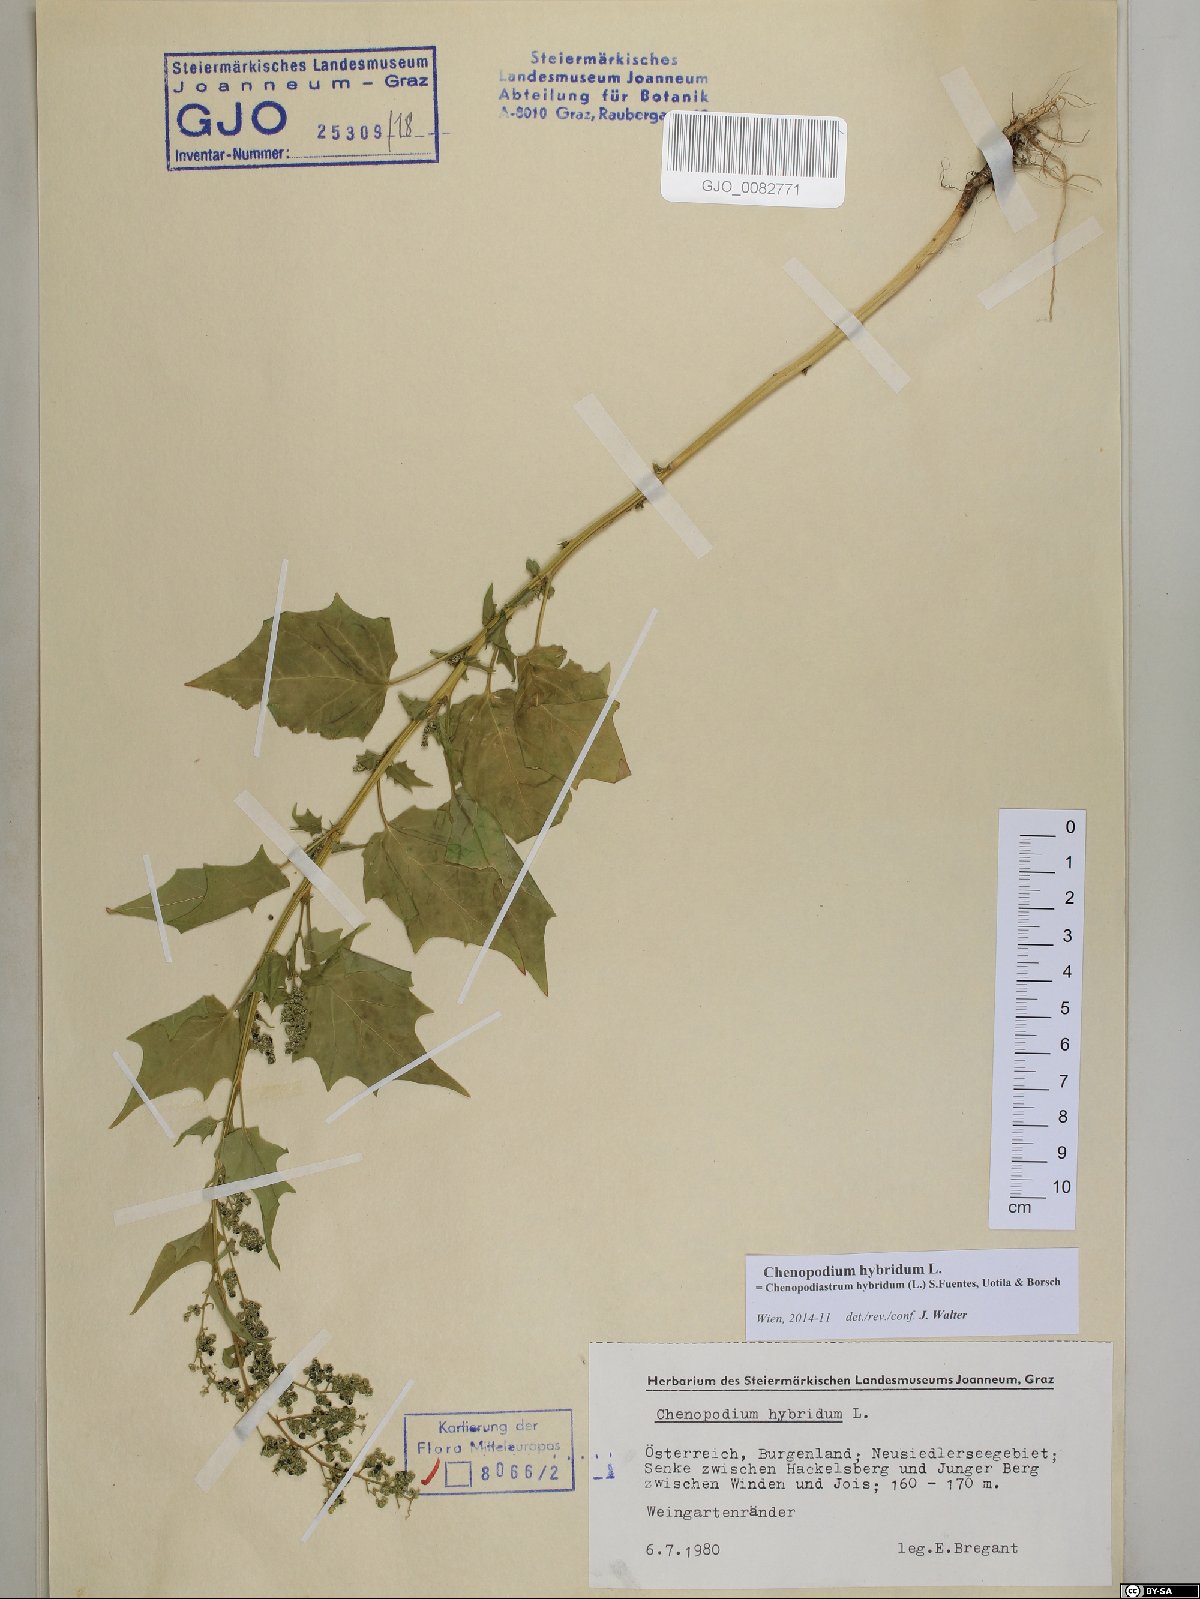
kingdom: Plantae
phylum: Tracheophyta
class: Magnoliopsida
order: Caryophyllales
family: Amaranthaceae
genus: Chenopodiastrum
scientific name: Chenopodiastrum hybridum
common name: Mapleleaf goosefoot
